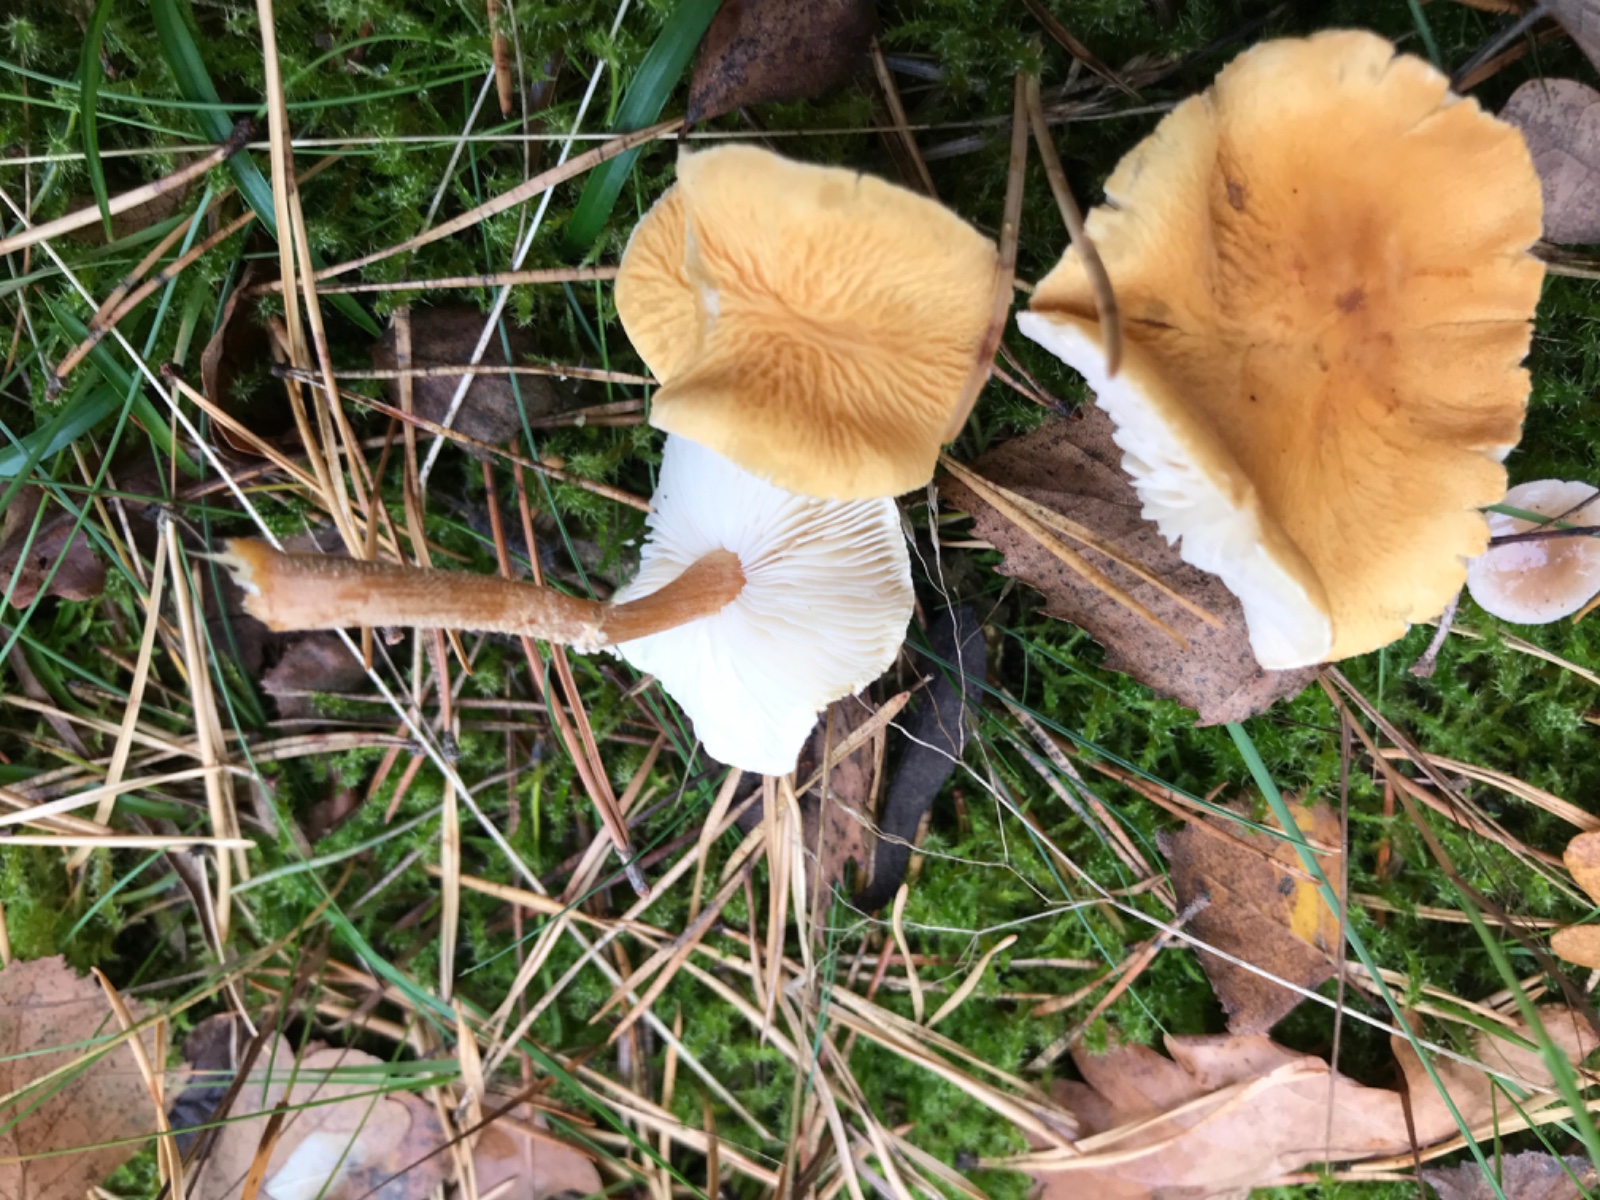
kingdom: Fungi
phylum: Basidiomycota
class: Agaricomycetes
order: Agaricales
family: Tricholomataceae
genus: Cystoderma
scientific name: Cystoderma amianthinum
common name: okkergul grynhat
